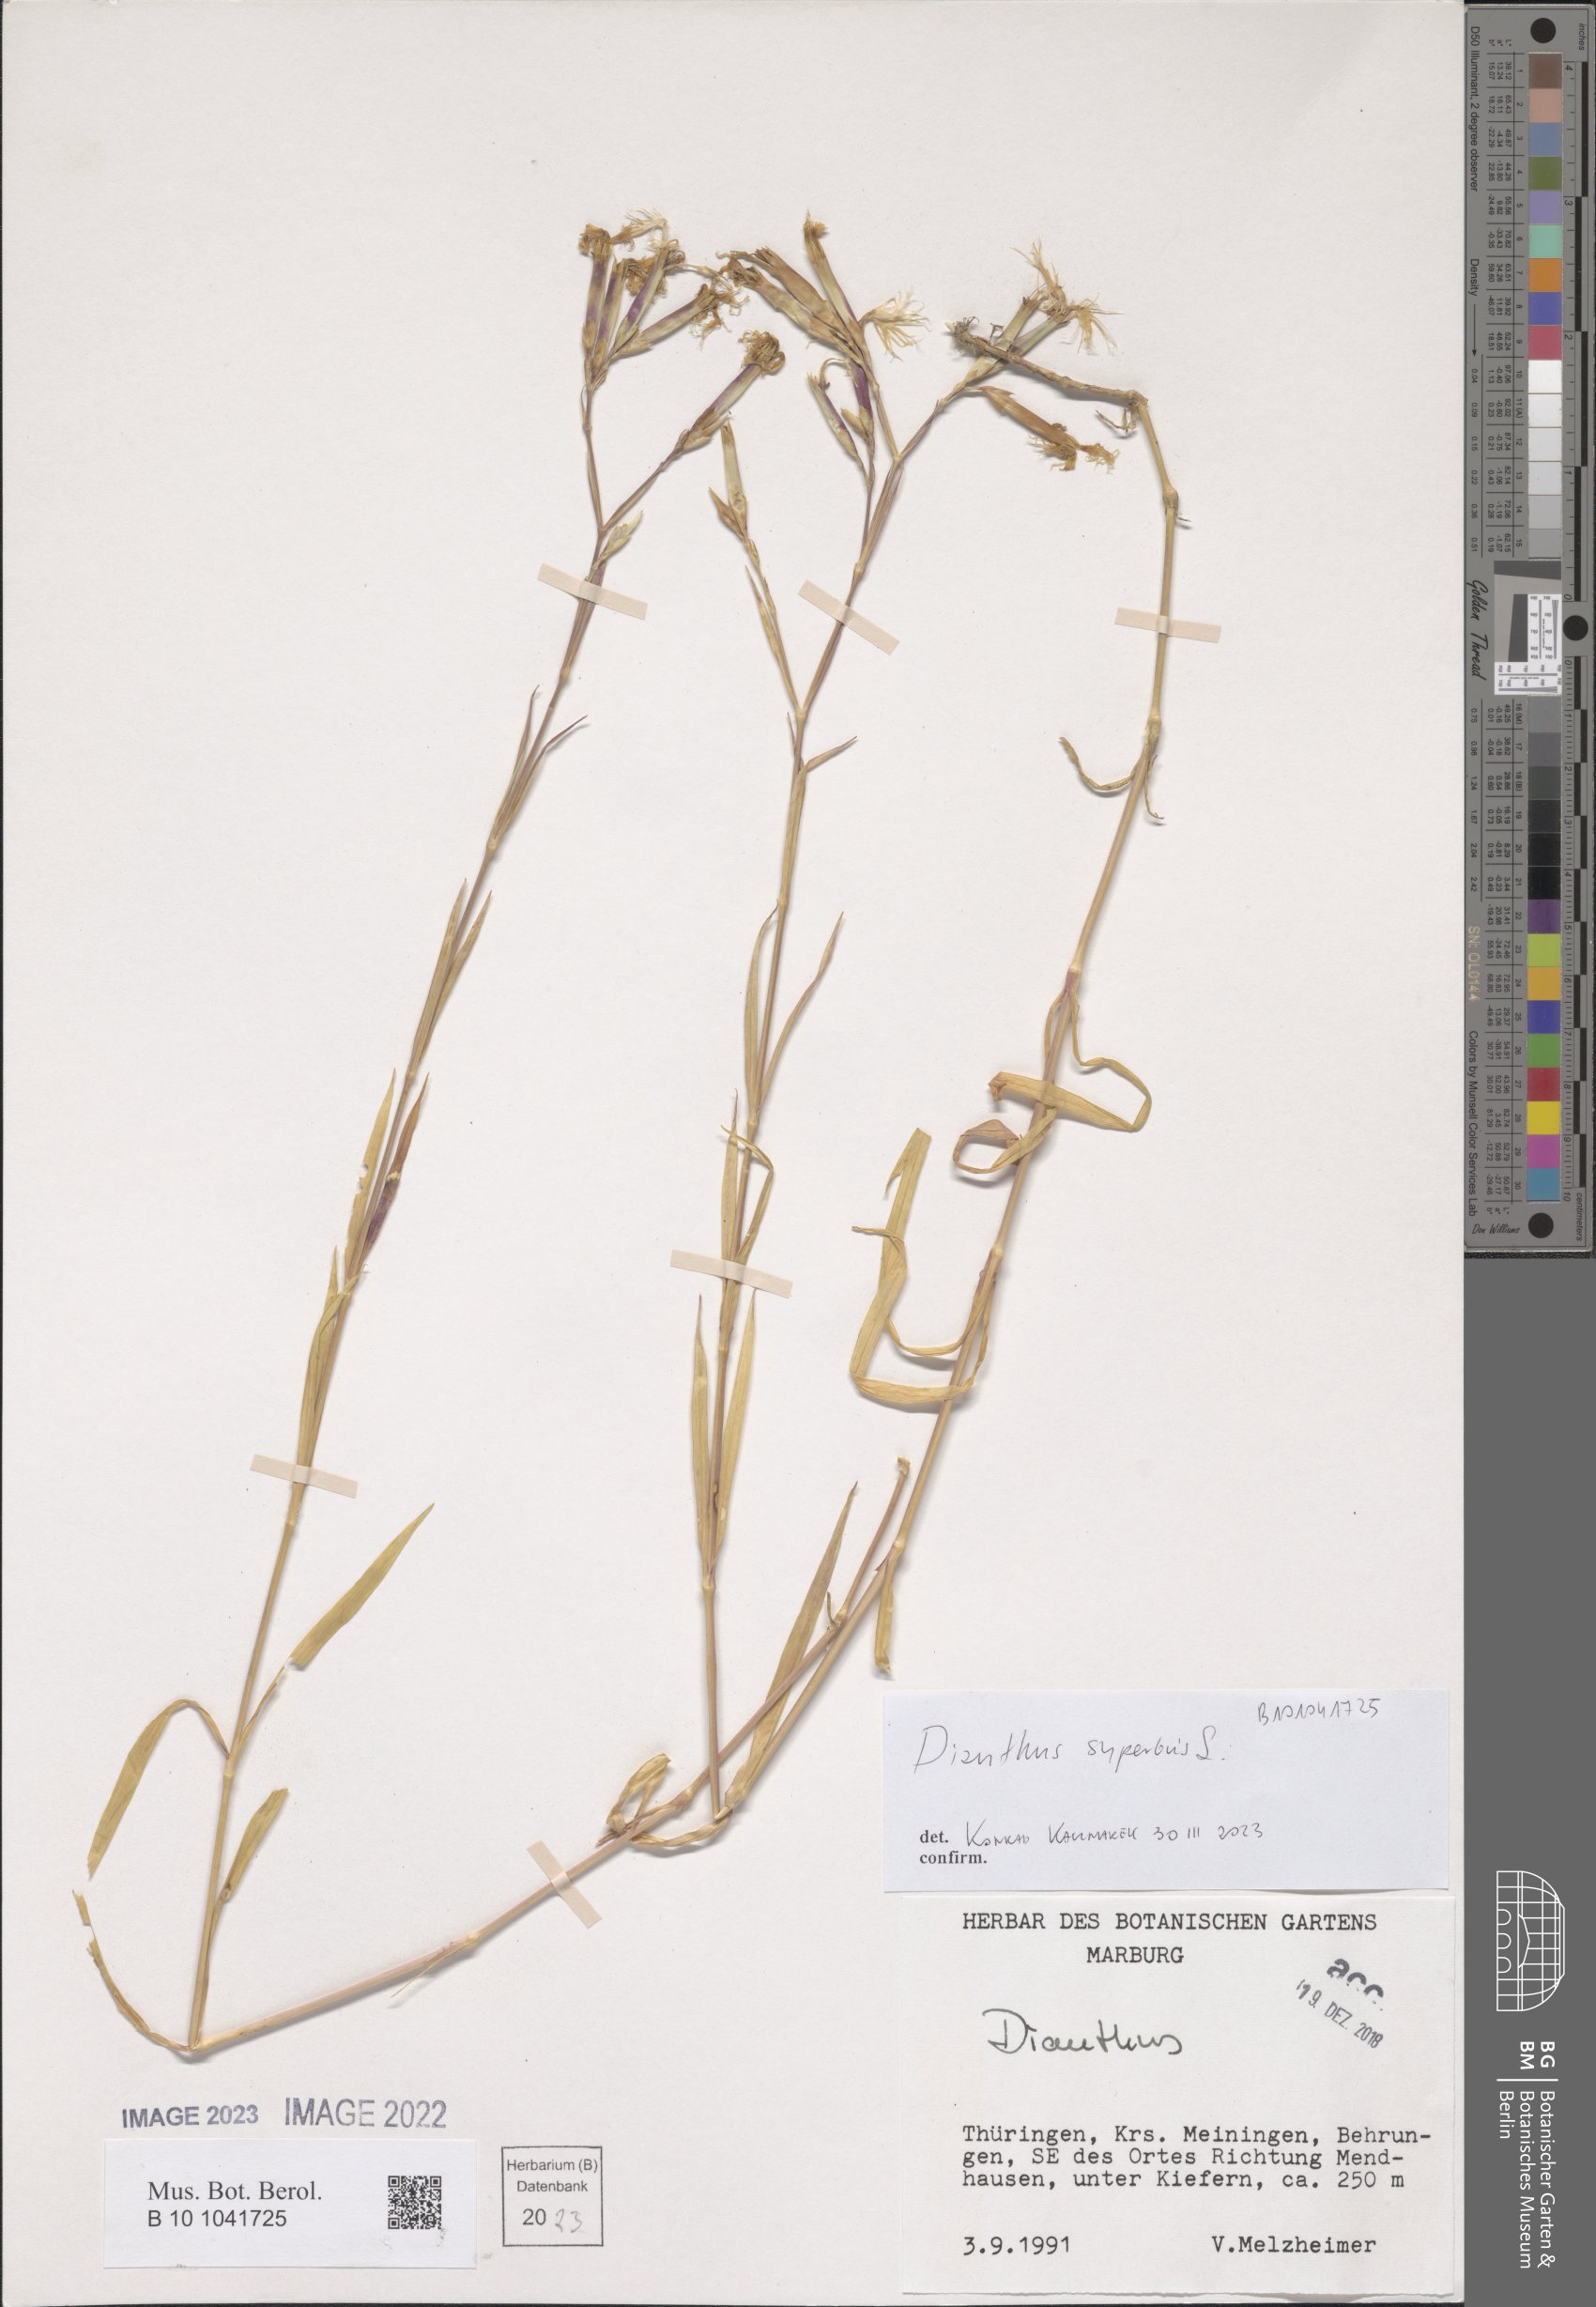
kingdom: Plantae
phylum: Tracheophyta
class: Magnoliopsida
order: Caryophyllales
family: Caryophyllaceae
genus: Dianthus
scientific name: Dianthus superbus
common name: Fringed pink
